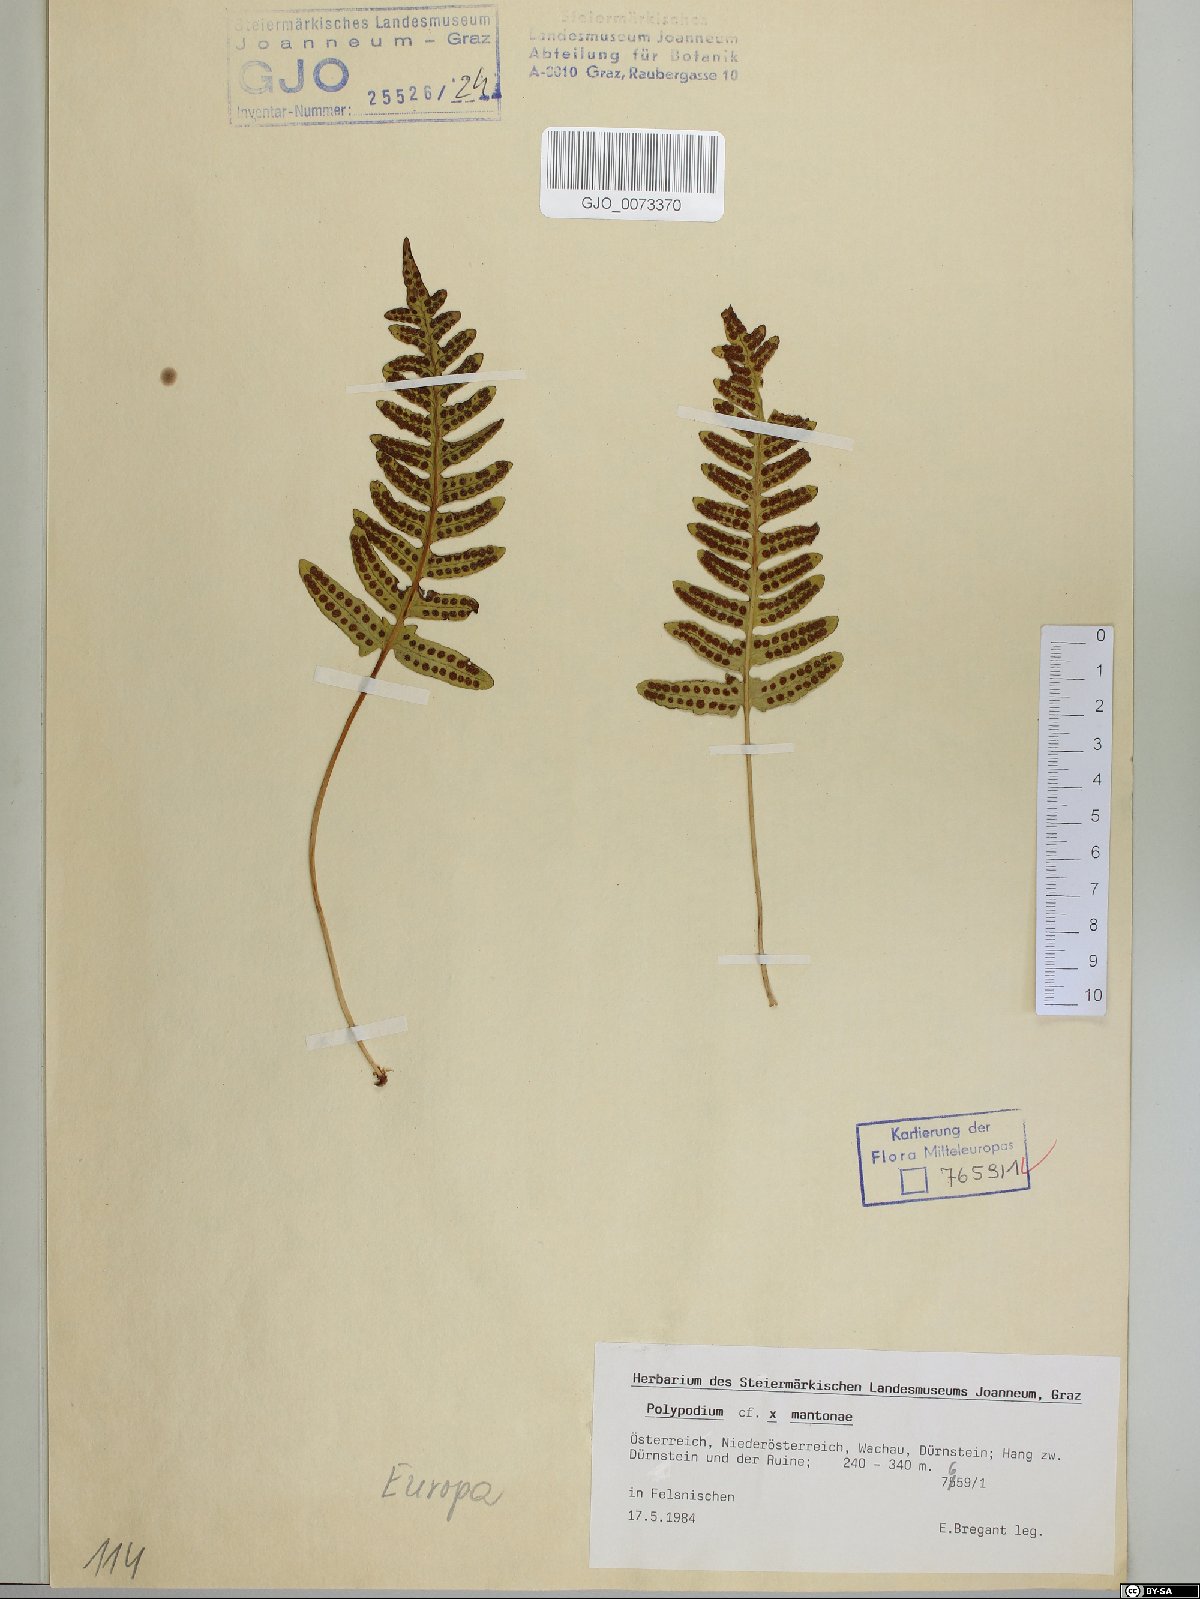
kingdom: Plantae
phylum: Tracheophyta
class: Polypodiopsida
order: Polypodiales
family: Polypodiaceae
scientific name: Polypodiaceae
